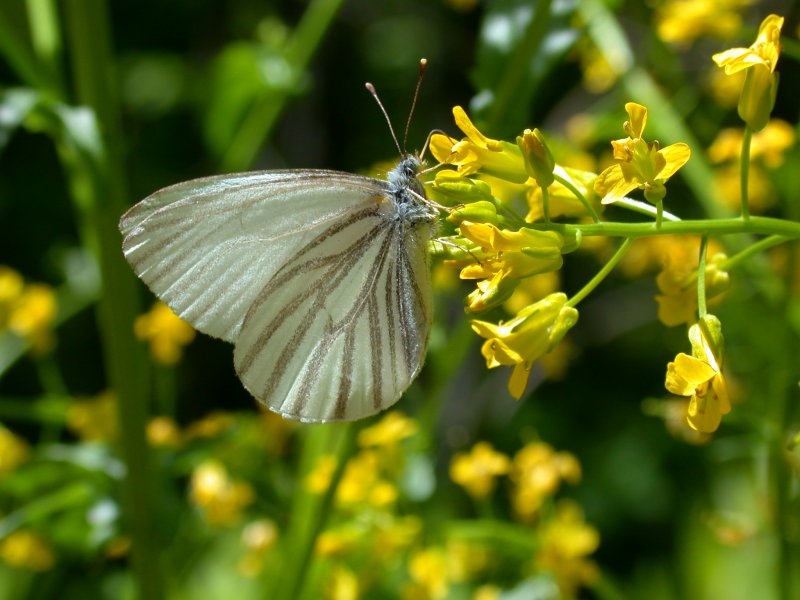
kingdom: Animalia
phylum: Arthropoda
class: Insecta
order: Lepidoptera
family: Pieridae
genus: Pieris
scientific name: Pieris oleracea
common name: Mustard White
